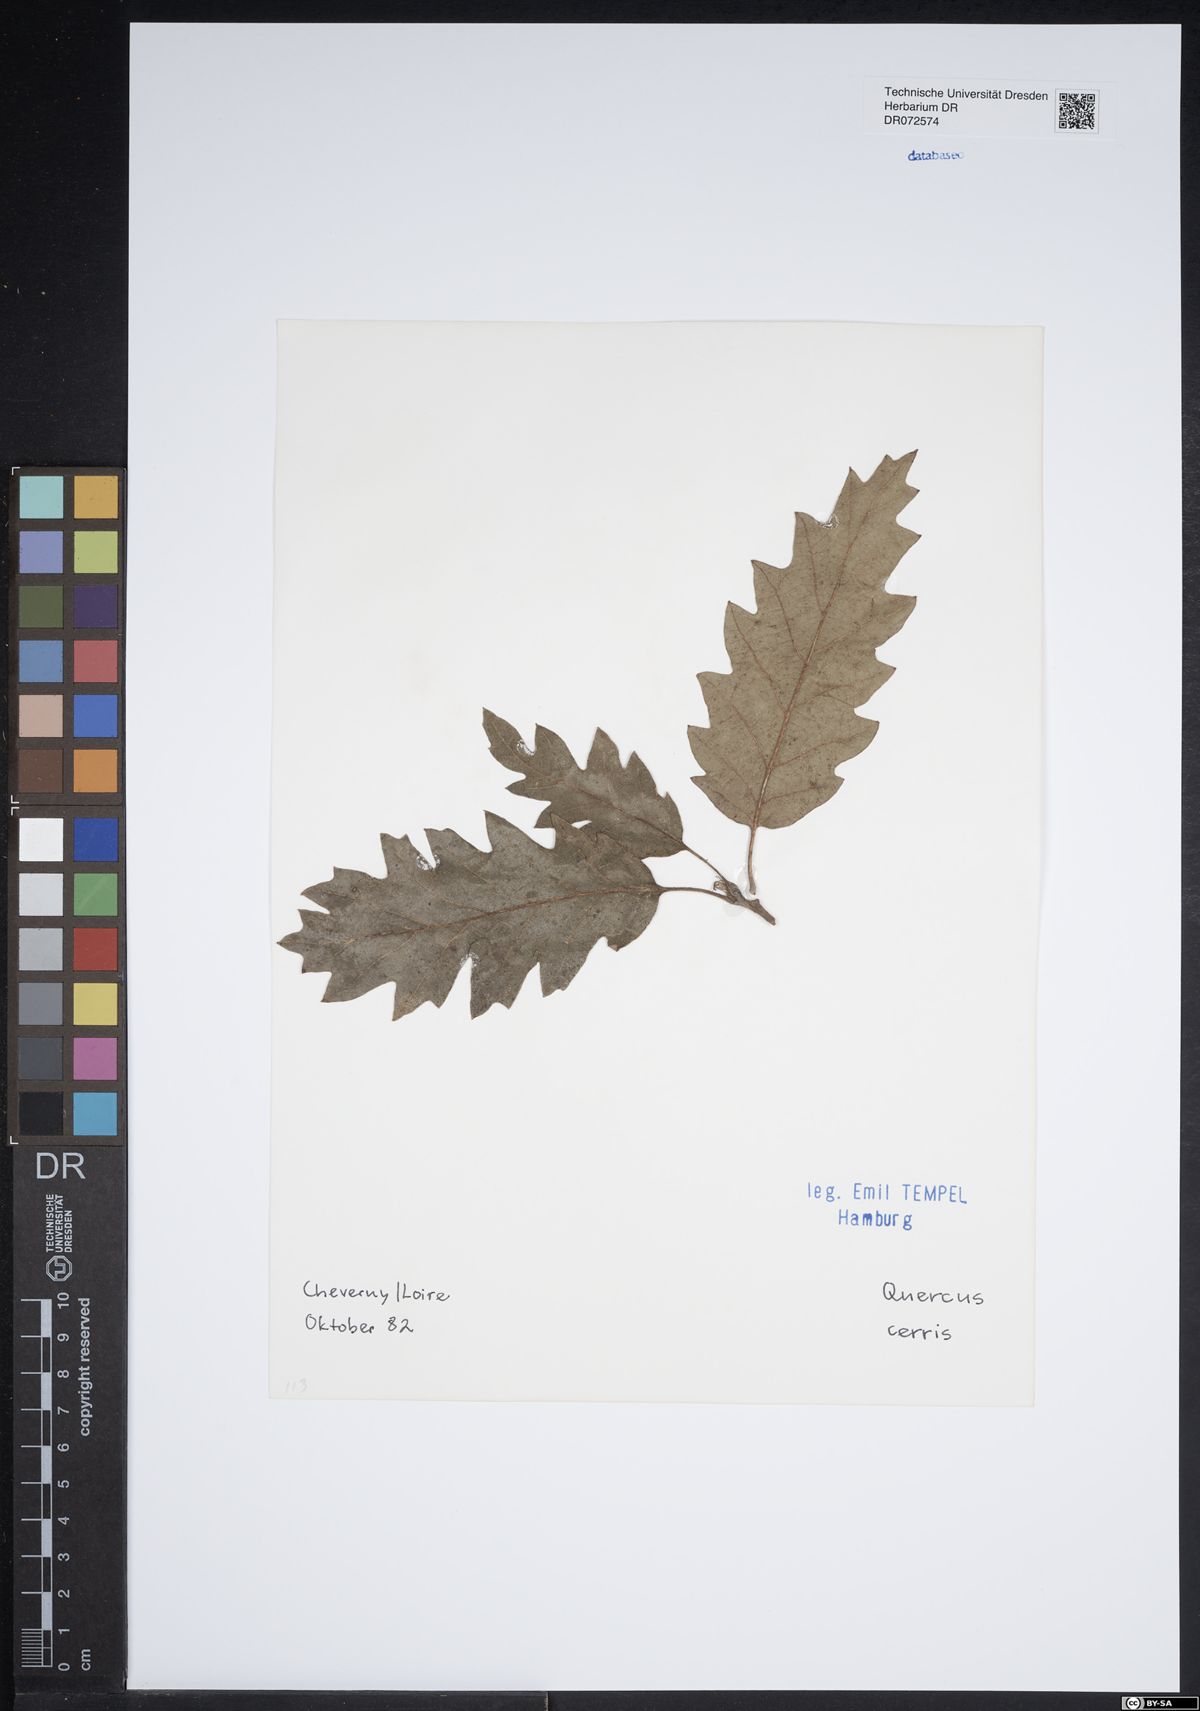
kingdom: Plantae
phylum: Tracheophyta
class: Magnoliopsida
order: Fagales
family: Fagaceae
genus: Quercus
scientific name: Quercus cerris
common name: Turkey oak
